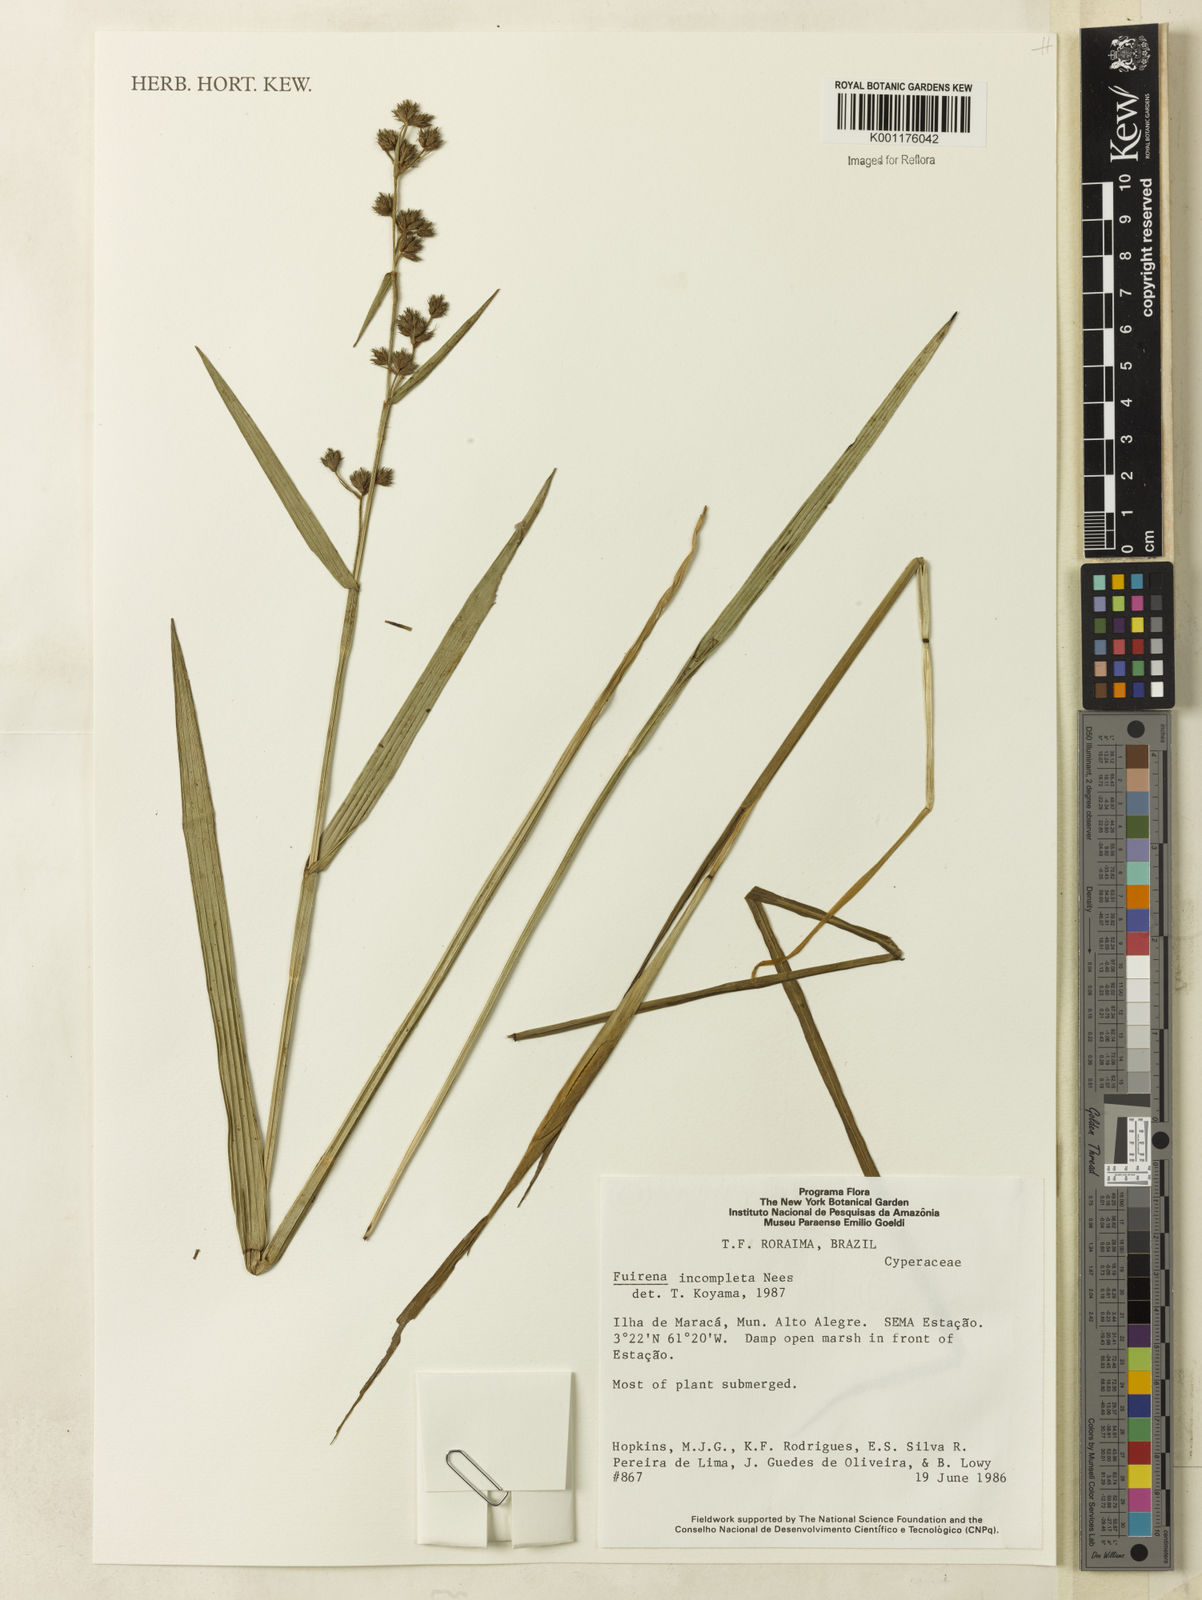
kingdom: Plantae
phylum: Tracheophyta
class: Liliopsida
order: Poales
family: Cyperaceae
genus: Fuirena
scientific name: Fuirena incompleta
